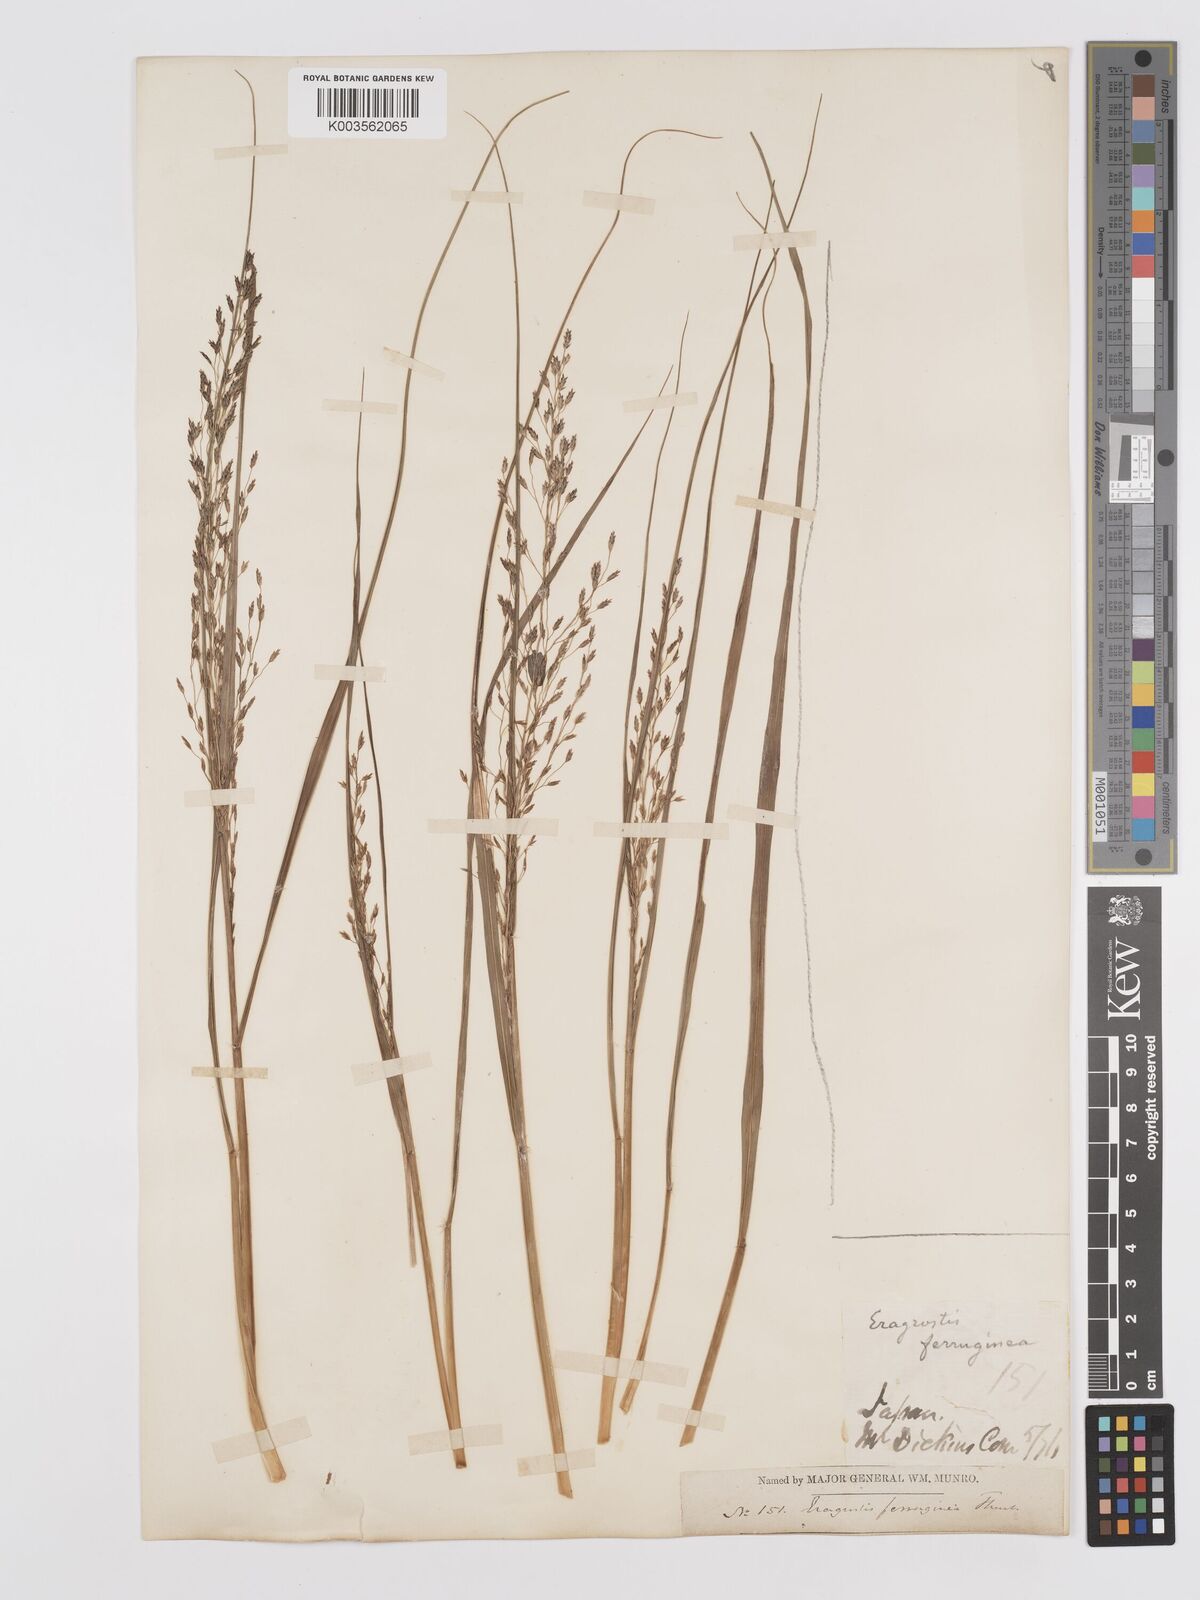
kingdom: Plantae
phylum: Tracheophyta
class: Liliopsida
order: Poales
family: Poaceae
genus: Eragrostis
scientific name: Eragrostis ferruginea
